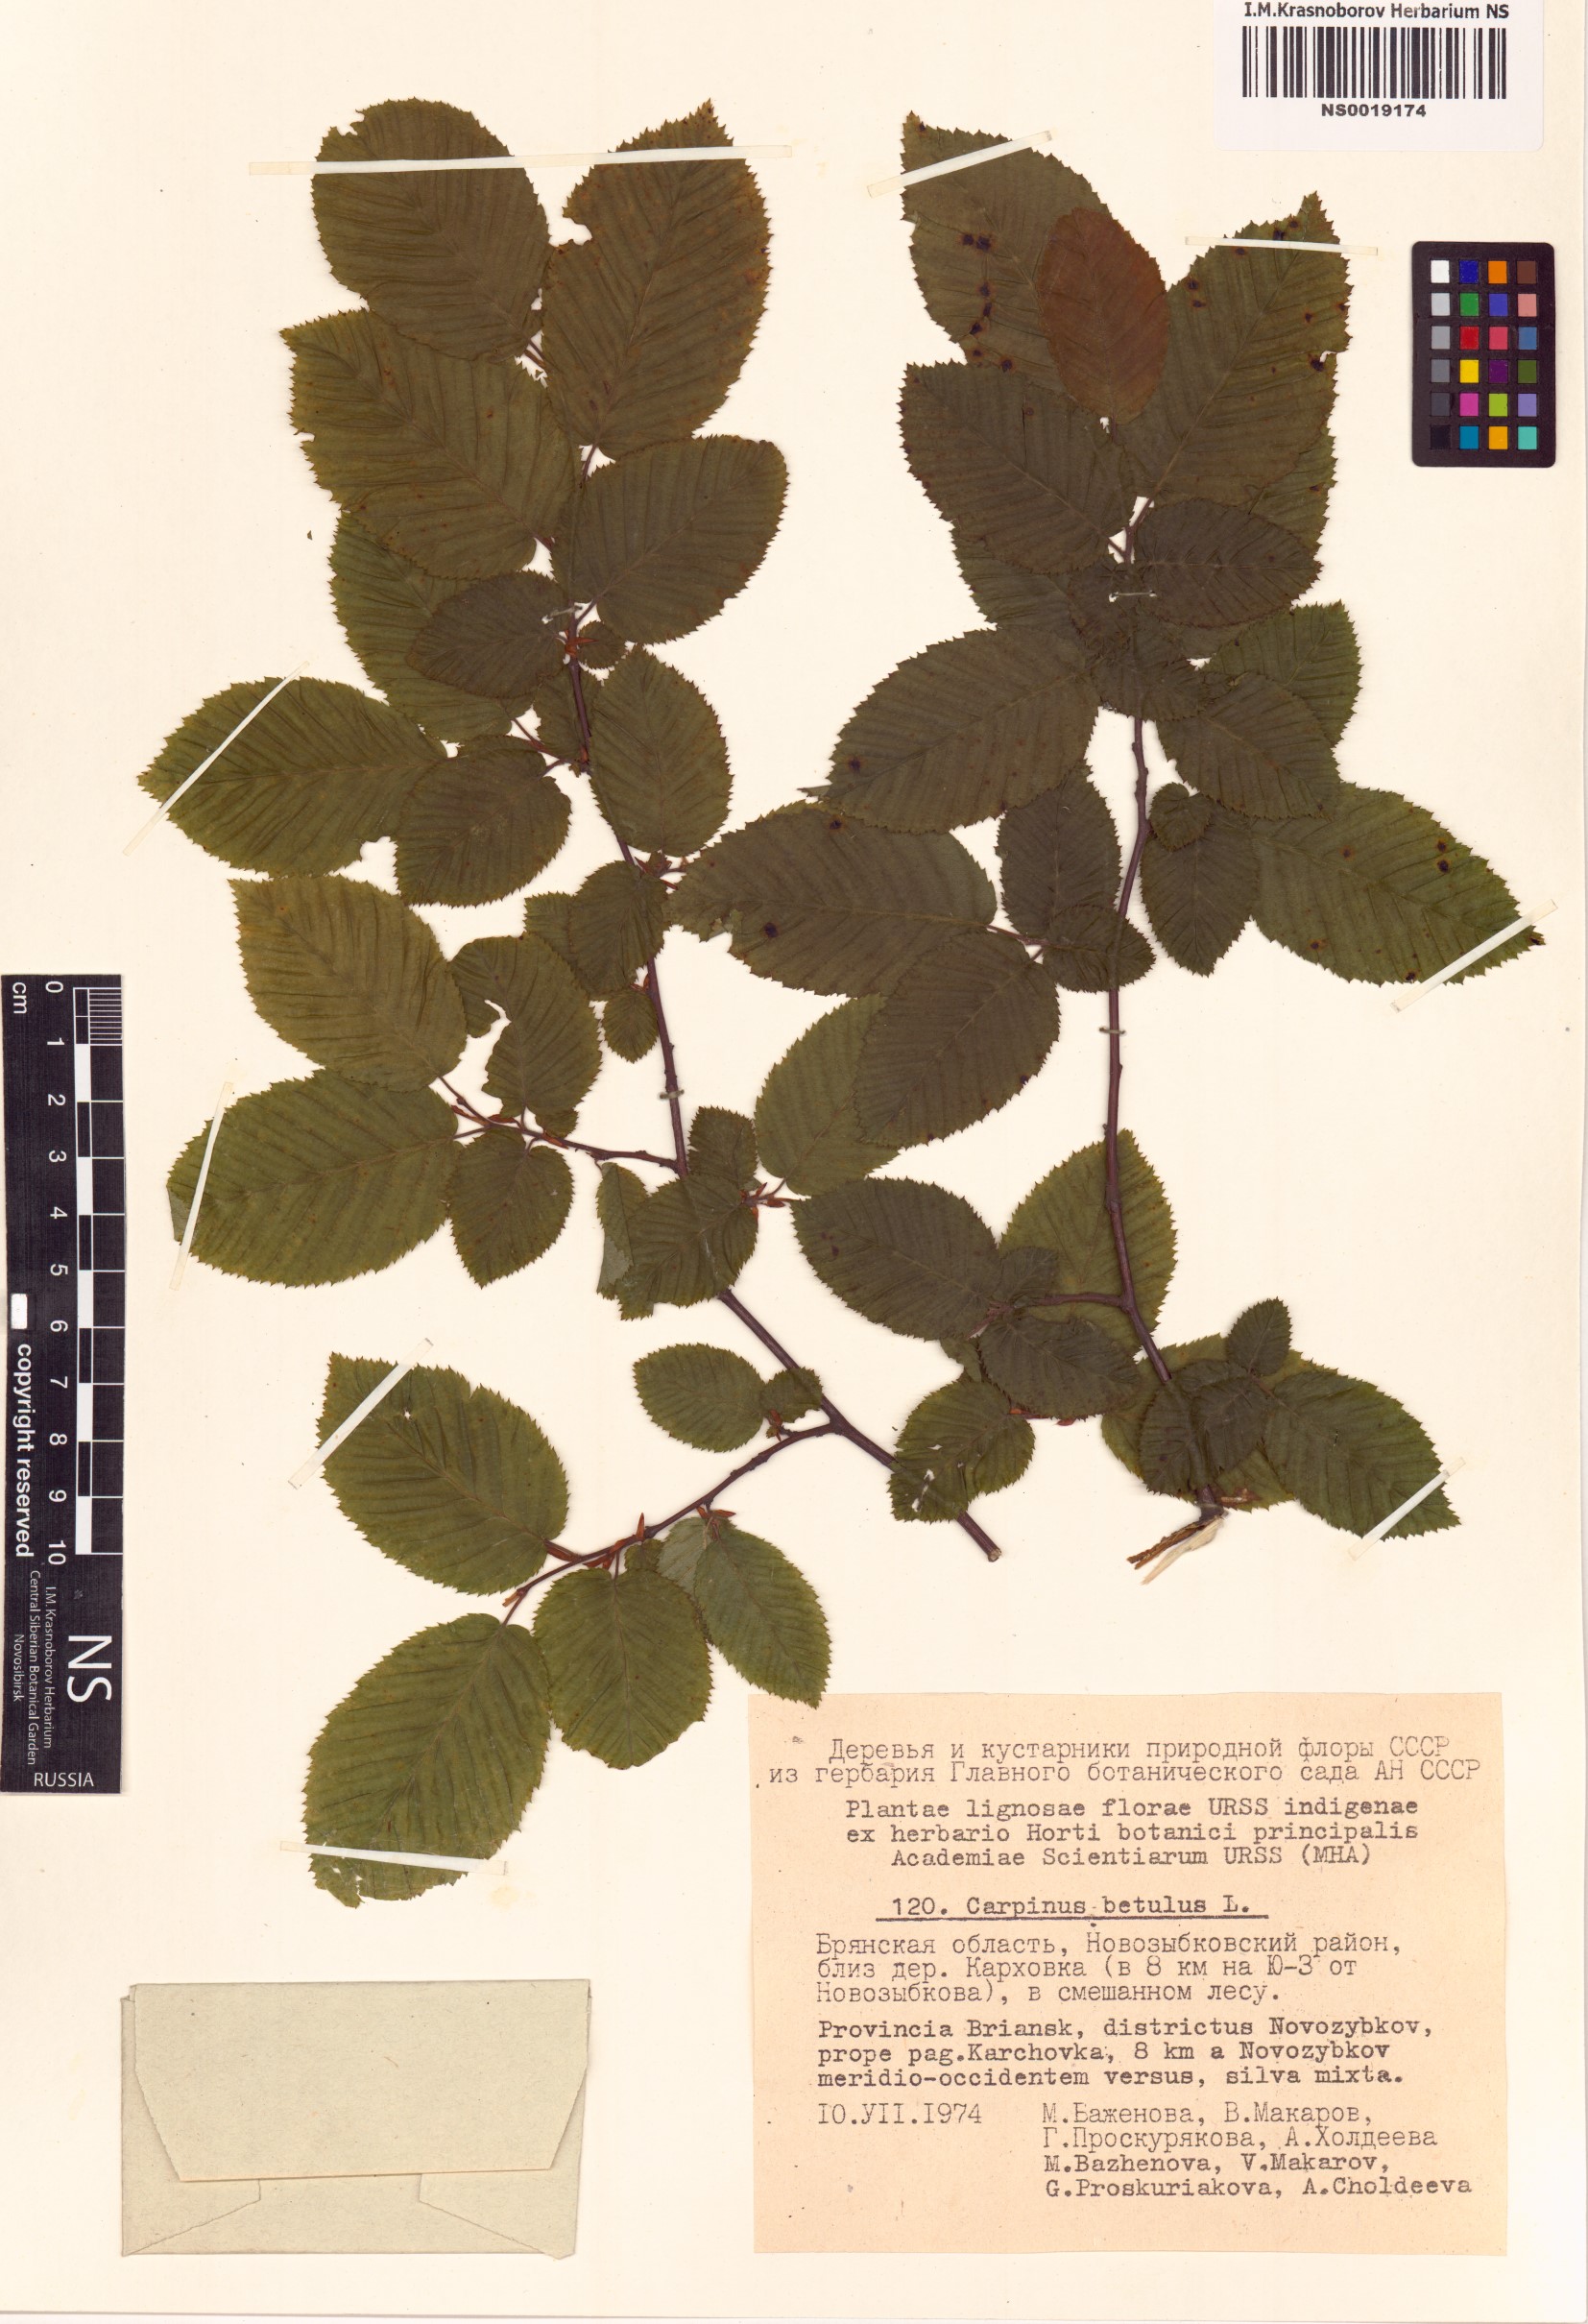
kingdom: Plantae
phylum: Tracheophyta
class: Magnoliopsida
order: Fagales
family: Betulaceae
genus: Carpinus
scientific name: Carpinus betulus
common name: Hornbeam
